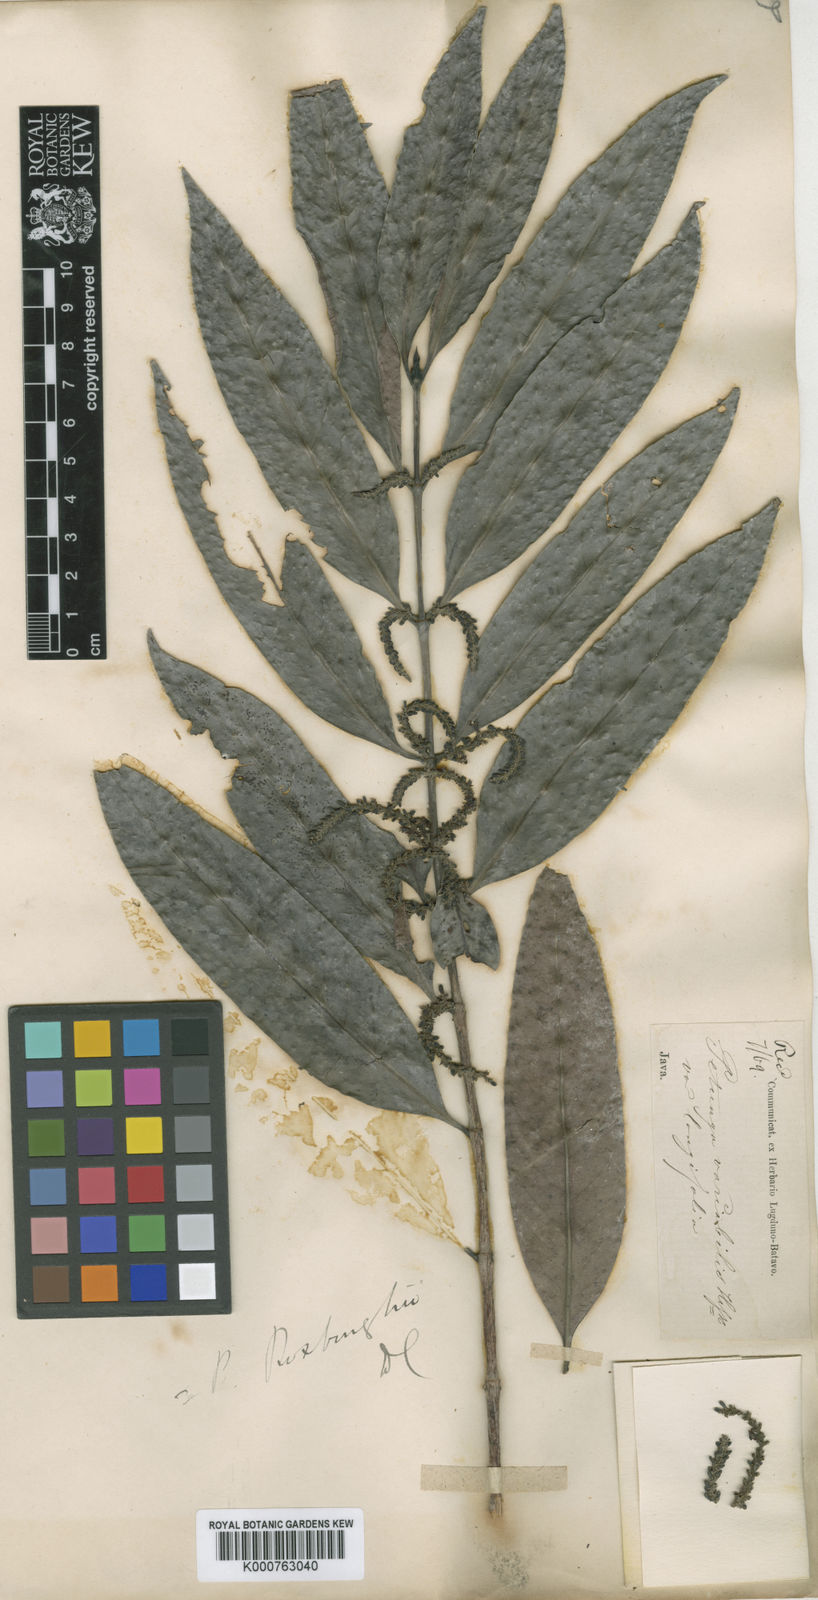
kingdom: Plantae
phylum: Tracheophyta
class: Magnoliopsida
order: Gentianales
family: Rubiaceae
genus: Hypobathrum
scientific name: Hypobathrum racemosum
